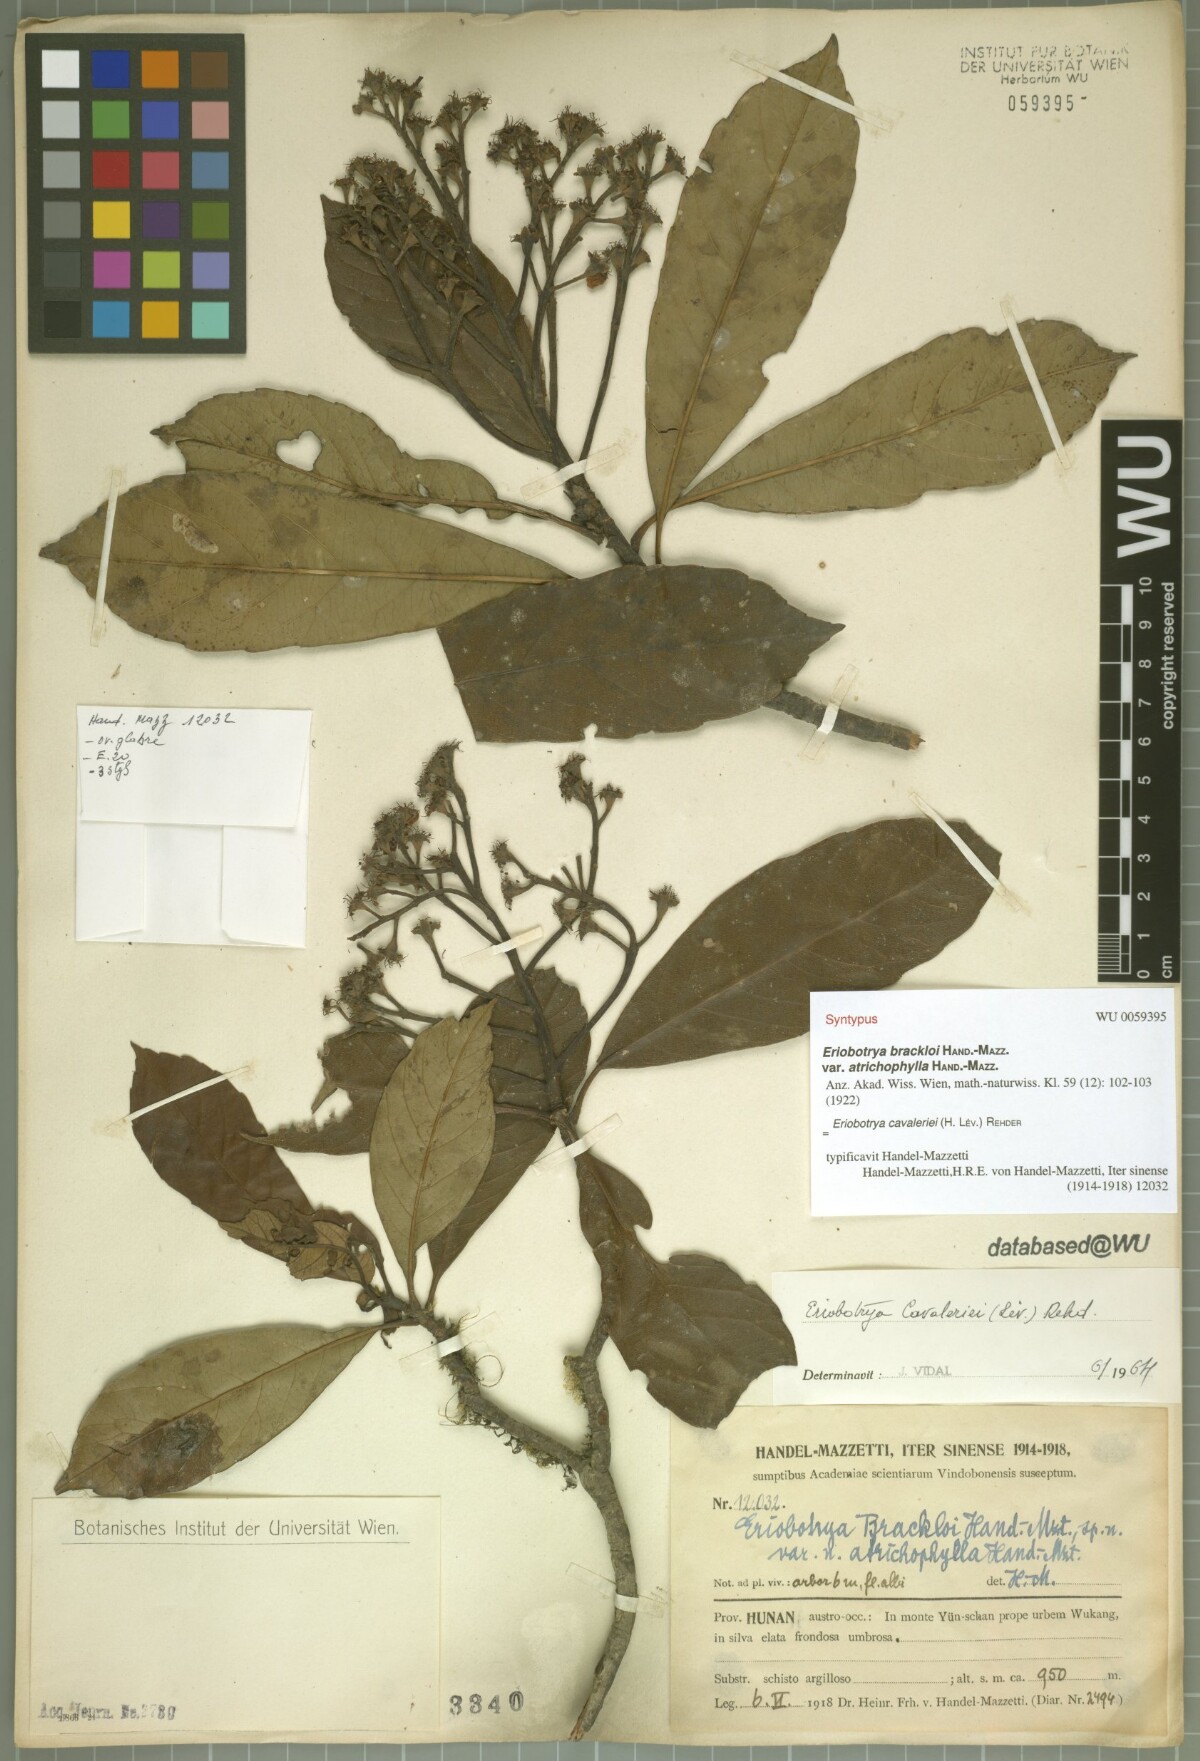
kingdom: Plantae
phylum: Tracheophyta
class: Magnoliopsida
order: Rosales
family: Rosaceae
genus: Rhaphiolepis
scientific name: Rhaphiolepis cavaleriei
